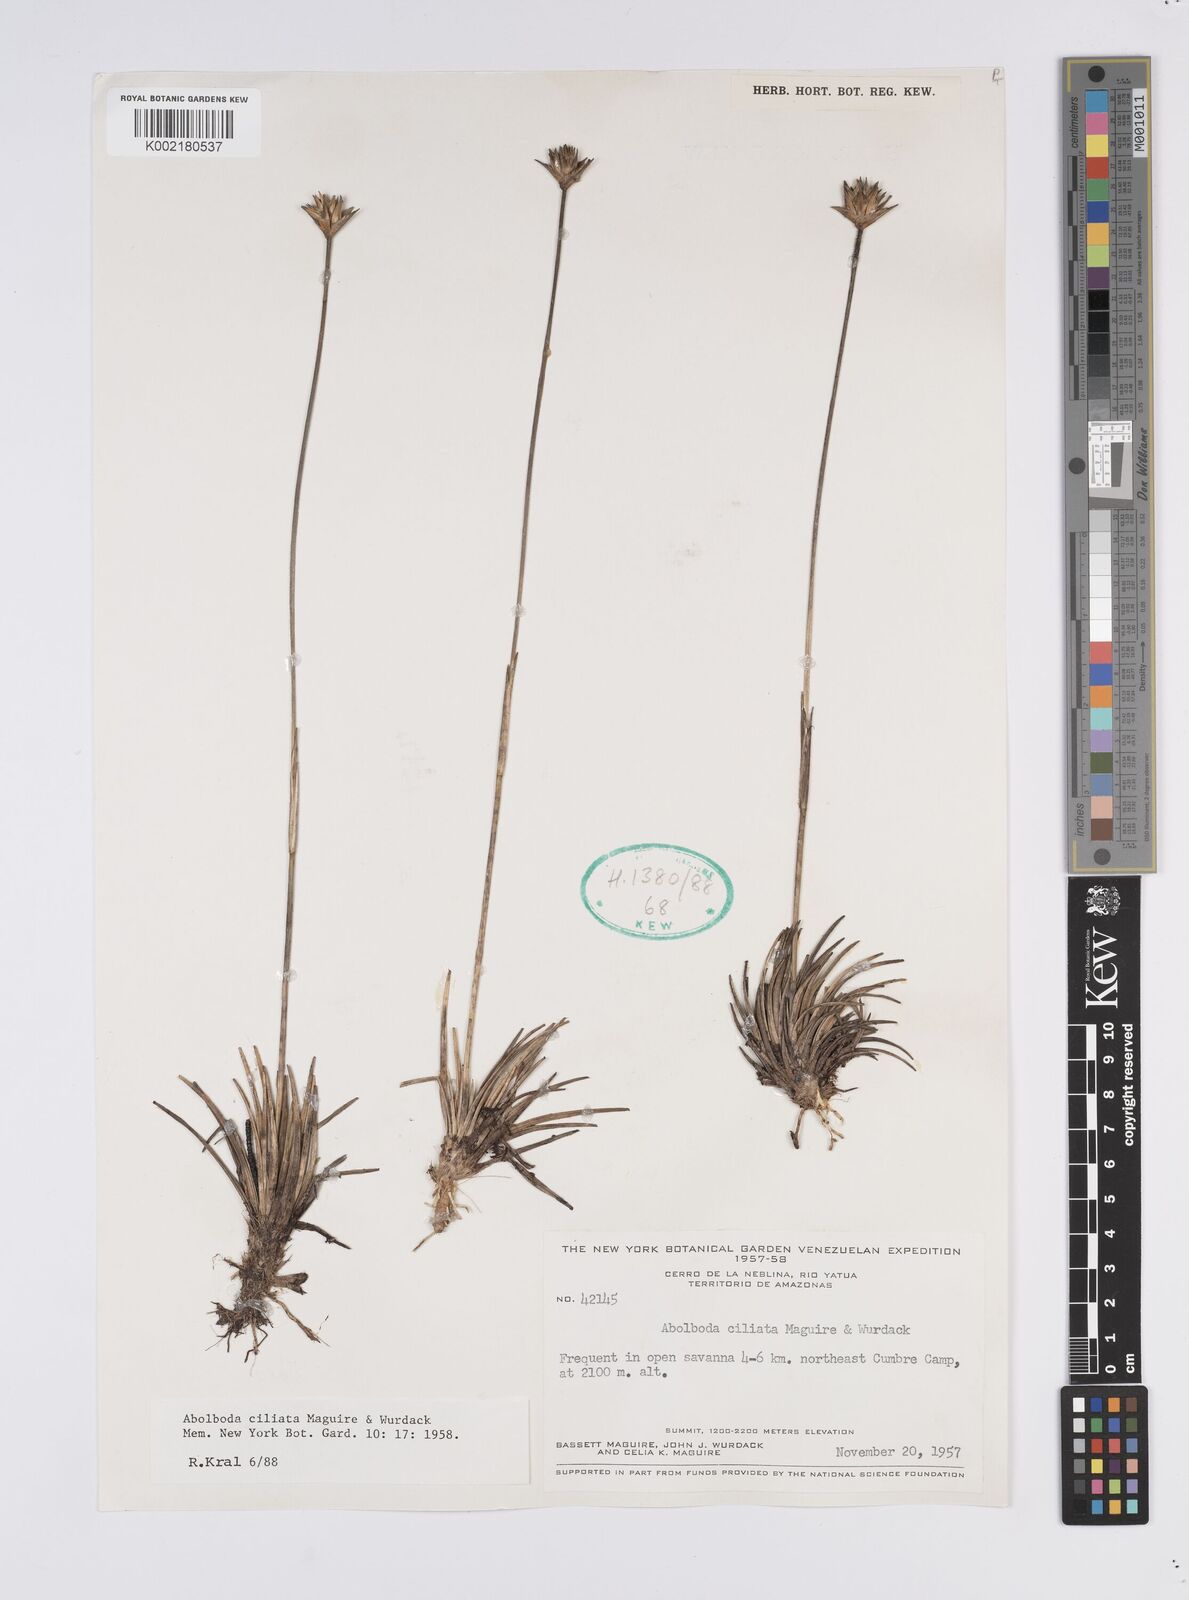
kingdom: Plantae
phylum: Tracheophyta
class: Liliopsida
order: Poales
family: Xyridaceae
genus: Abolboda
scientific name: Abolboda ciliata
